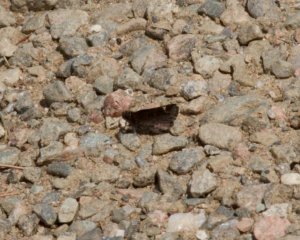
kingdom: Animalia
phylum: Arthropoda
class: Insecta
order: Lepidoptera
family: Hesperiidae
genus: Mastor
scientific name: Mastor vialis
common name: Common Roadside-Skipper
